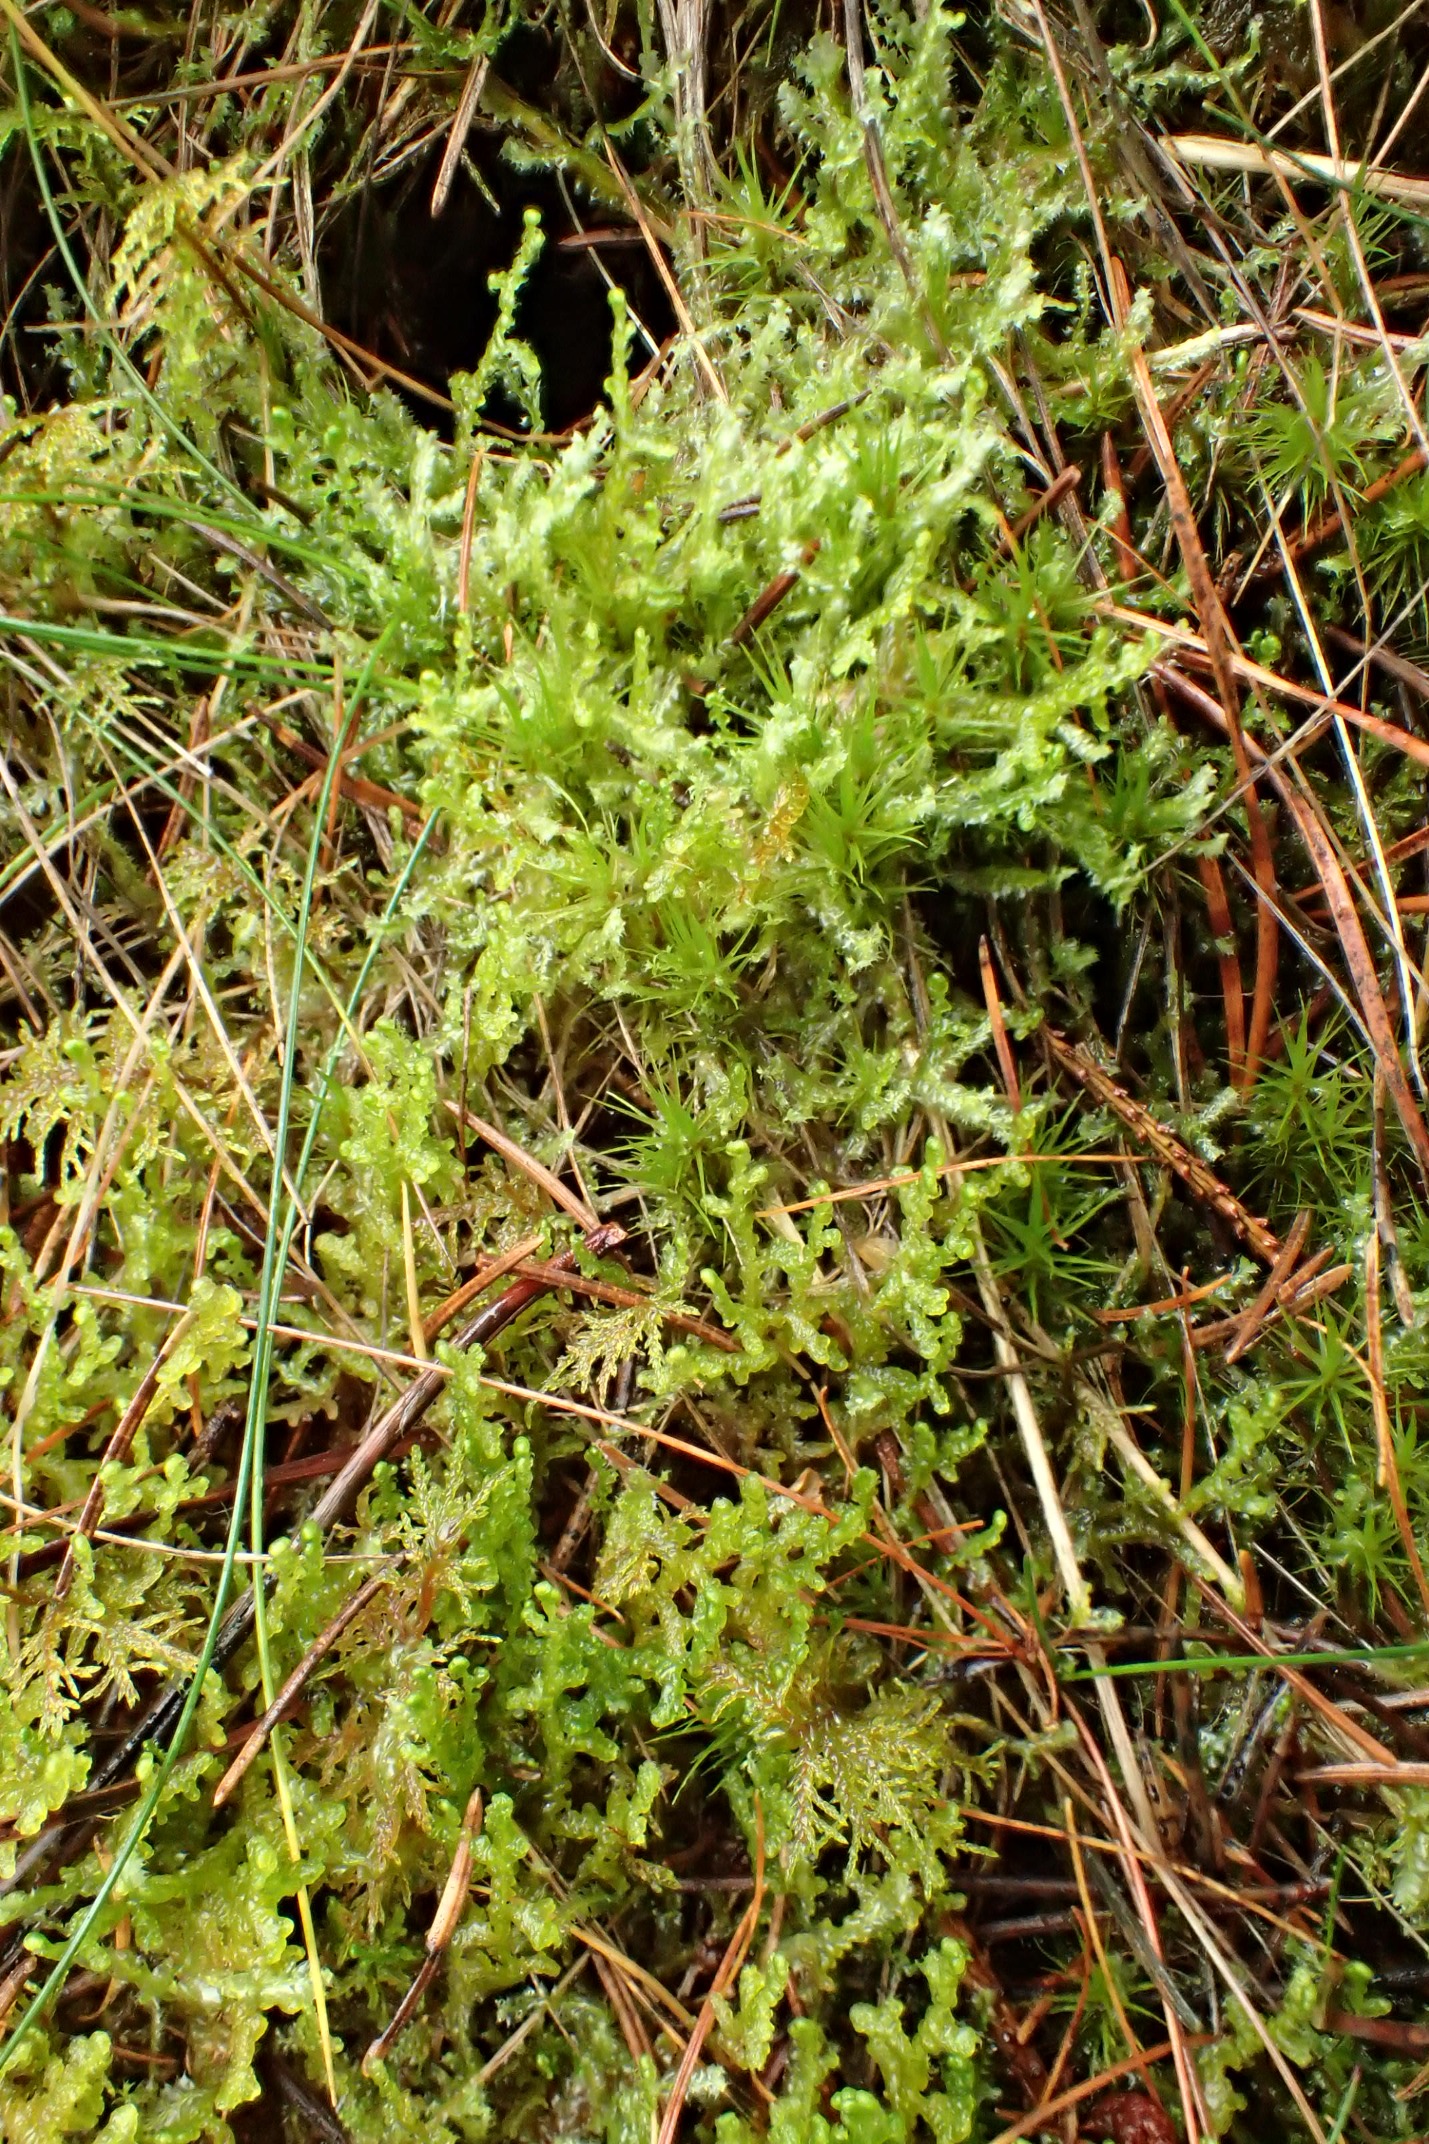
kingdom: Plantae
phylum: Marchantiophyta
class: Jungermanniopsida
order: Ptilidiales
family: Ptilidiaceae
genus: Ptilidium
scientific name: Ptilidium ciliare
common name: Almindelig frynsemos
